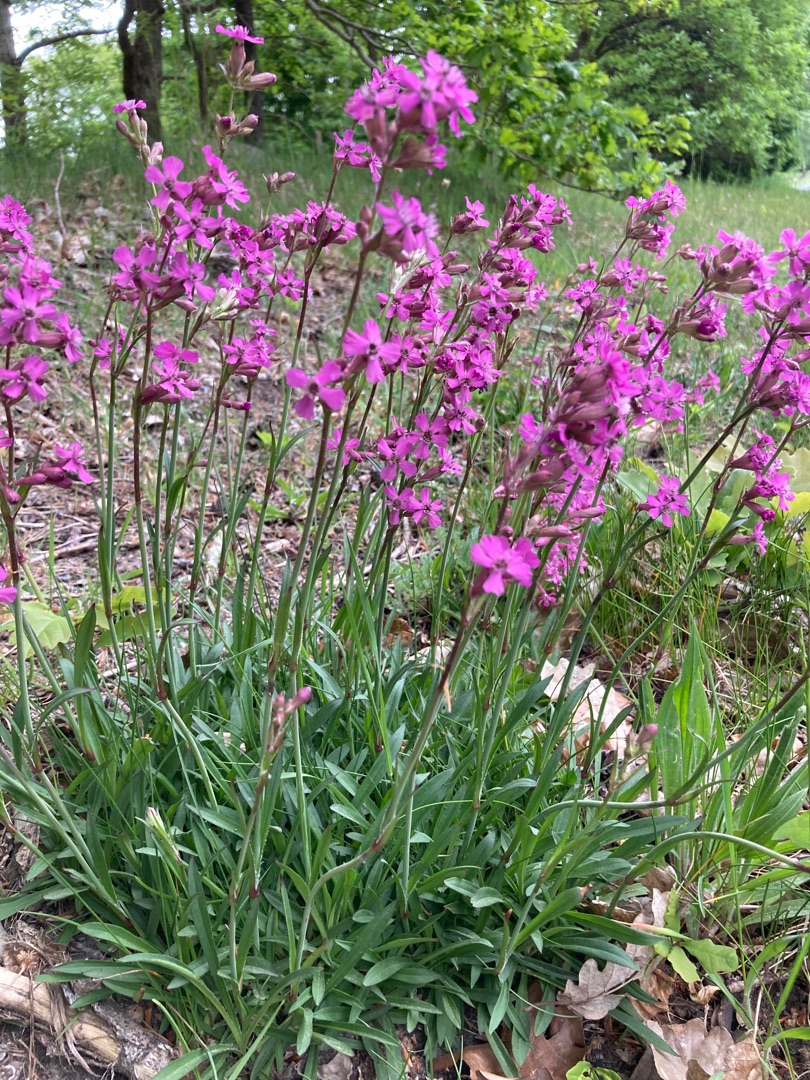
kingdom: Plantae
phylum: Tracheophyta
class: Magnoliopsida
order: Caryophyllales
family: Caryophyllaceae
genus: Viscaria
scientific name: Viscaria vulgaris
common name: Tjærenellike
